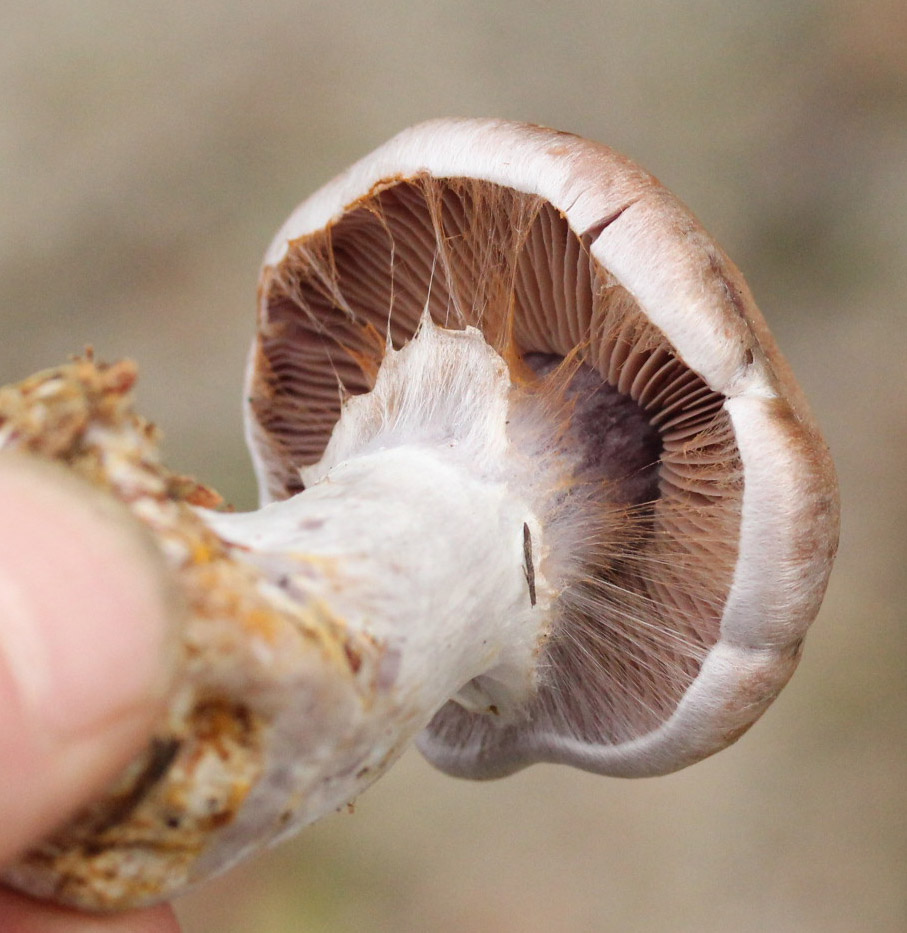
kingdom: Fungi
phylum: Basidiomycota
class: Agaricomycetes
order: Agaricales
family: Cortinariaceae
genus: Cortinarius
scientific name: Cortinarius quarciticus
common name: kvarts-slørhat
